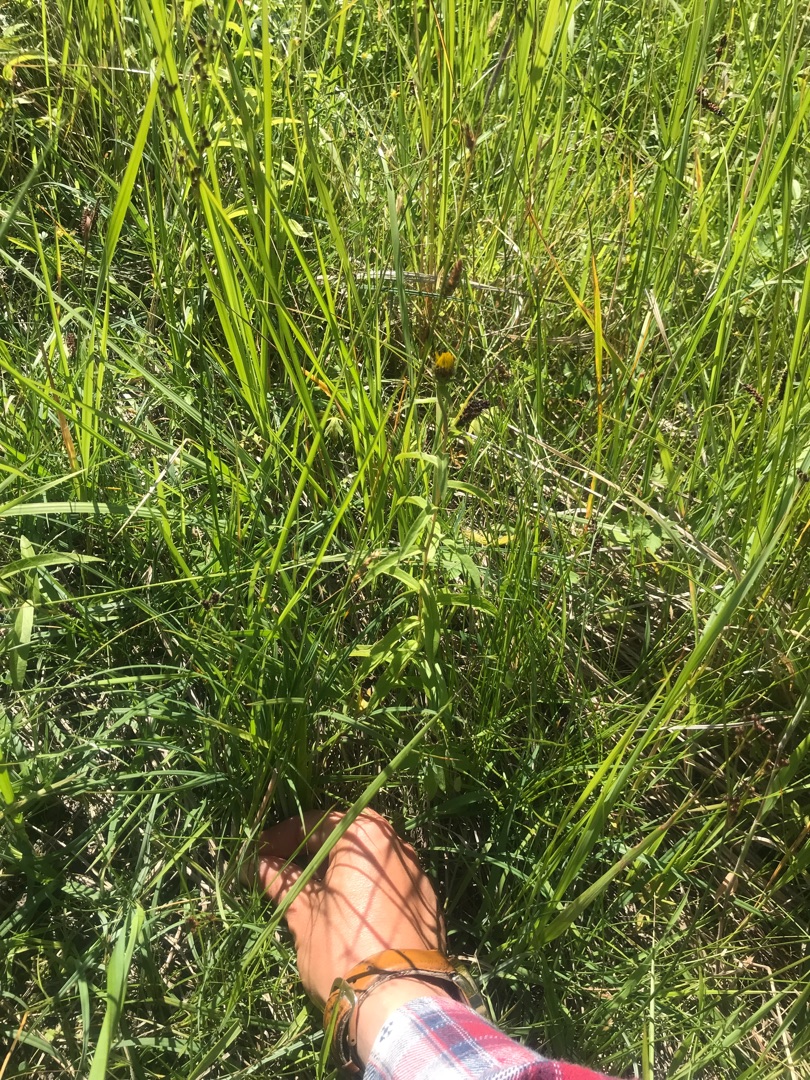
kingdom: Plantae
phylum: Tracheophyta
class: Magnoliopsida
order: Asterales
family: Asteraceae
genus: Pentanema
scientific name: Pentanema salicinum
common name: Pile-alant
